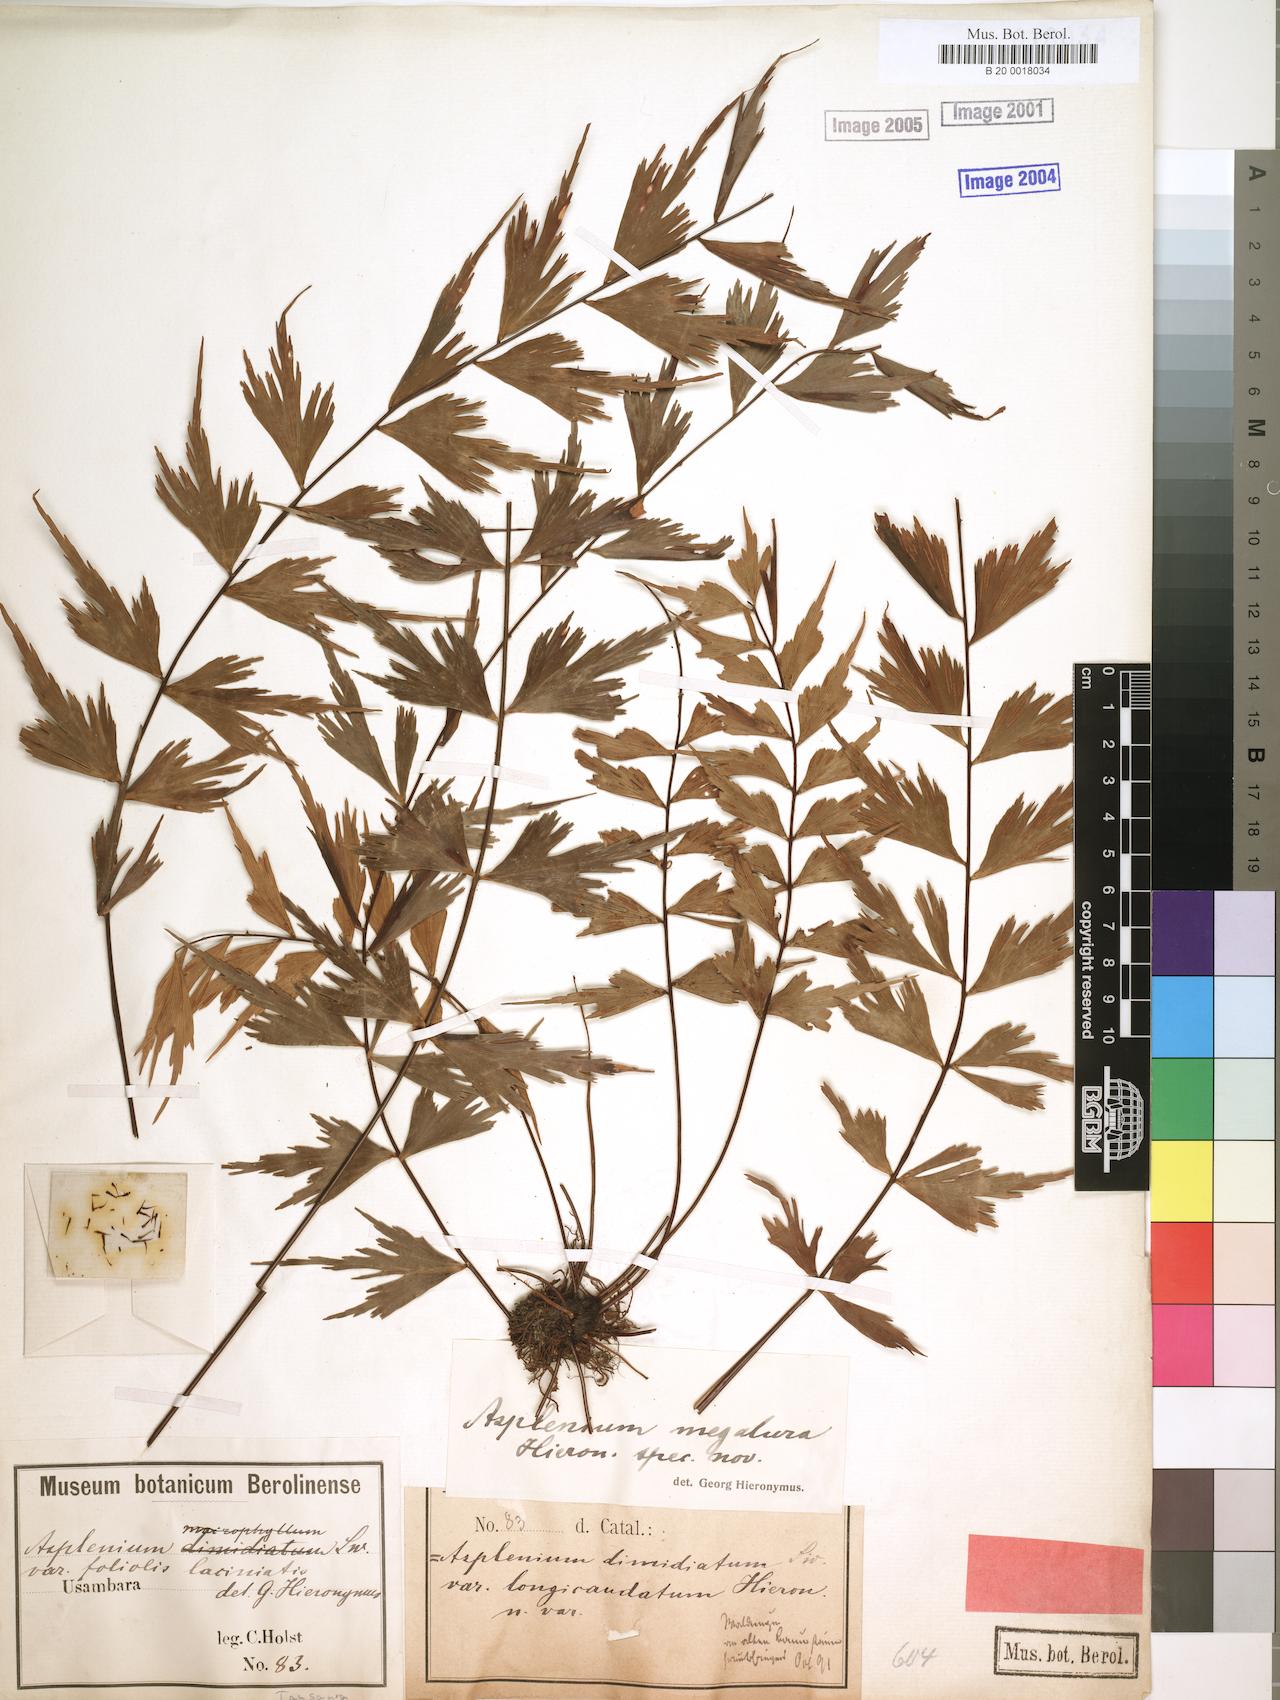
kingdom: Plantae
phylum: Tracheophyta
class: Polypodiopsida
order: Polypodiales
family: Aspleniaceae
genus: Asplenium
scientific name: Asplenium megalura
